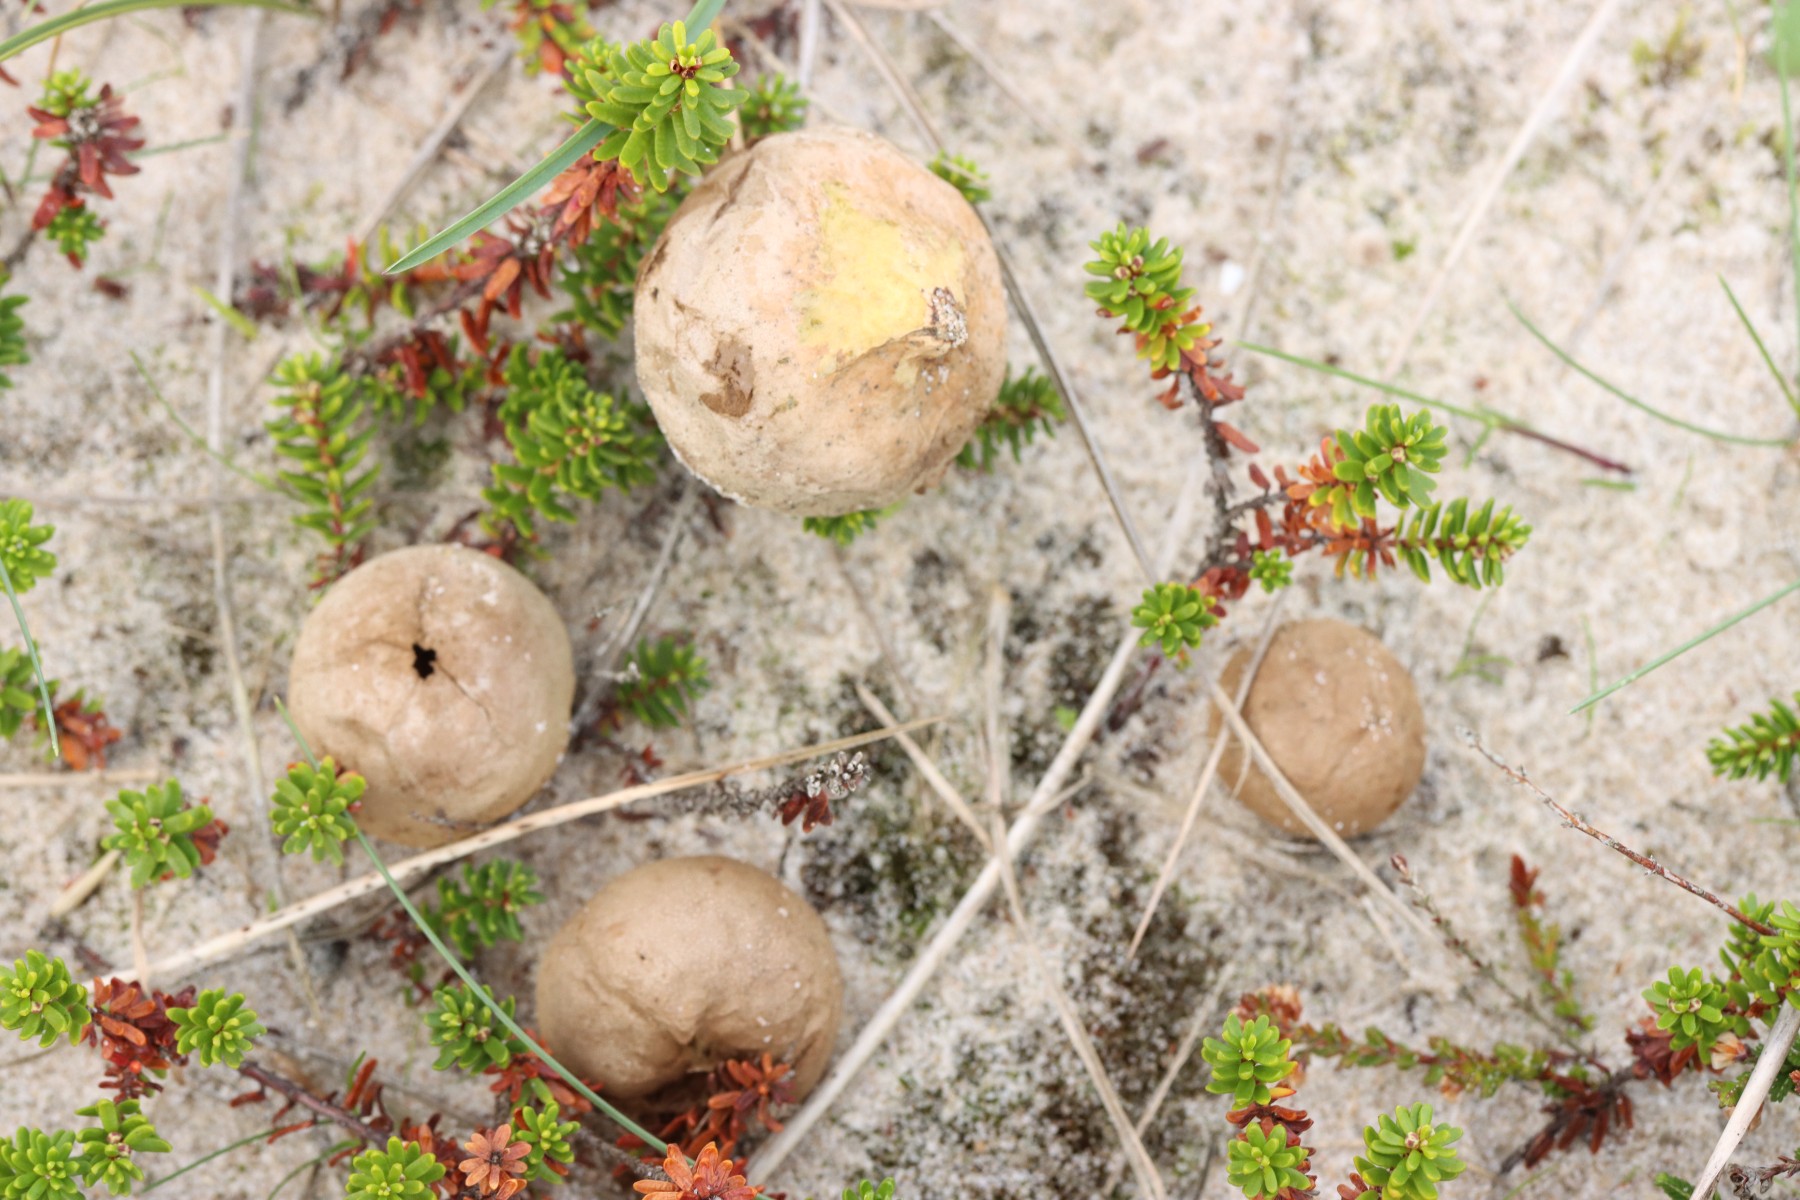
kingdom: Fungi
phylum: Basidiomycota
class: Agaricomycetes
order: Agaricales
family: Lycoperdaceae
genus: Bovista
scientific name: Bovista aestivalis
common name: klit-bovist
